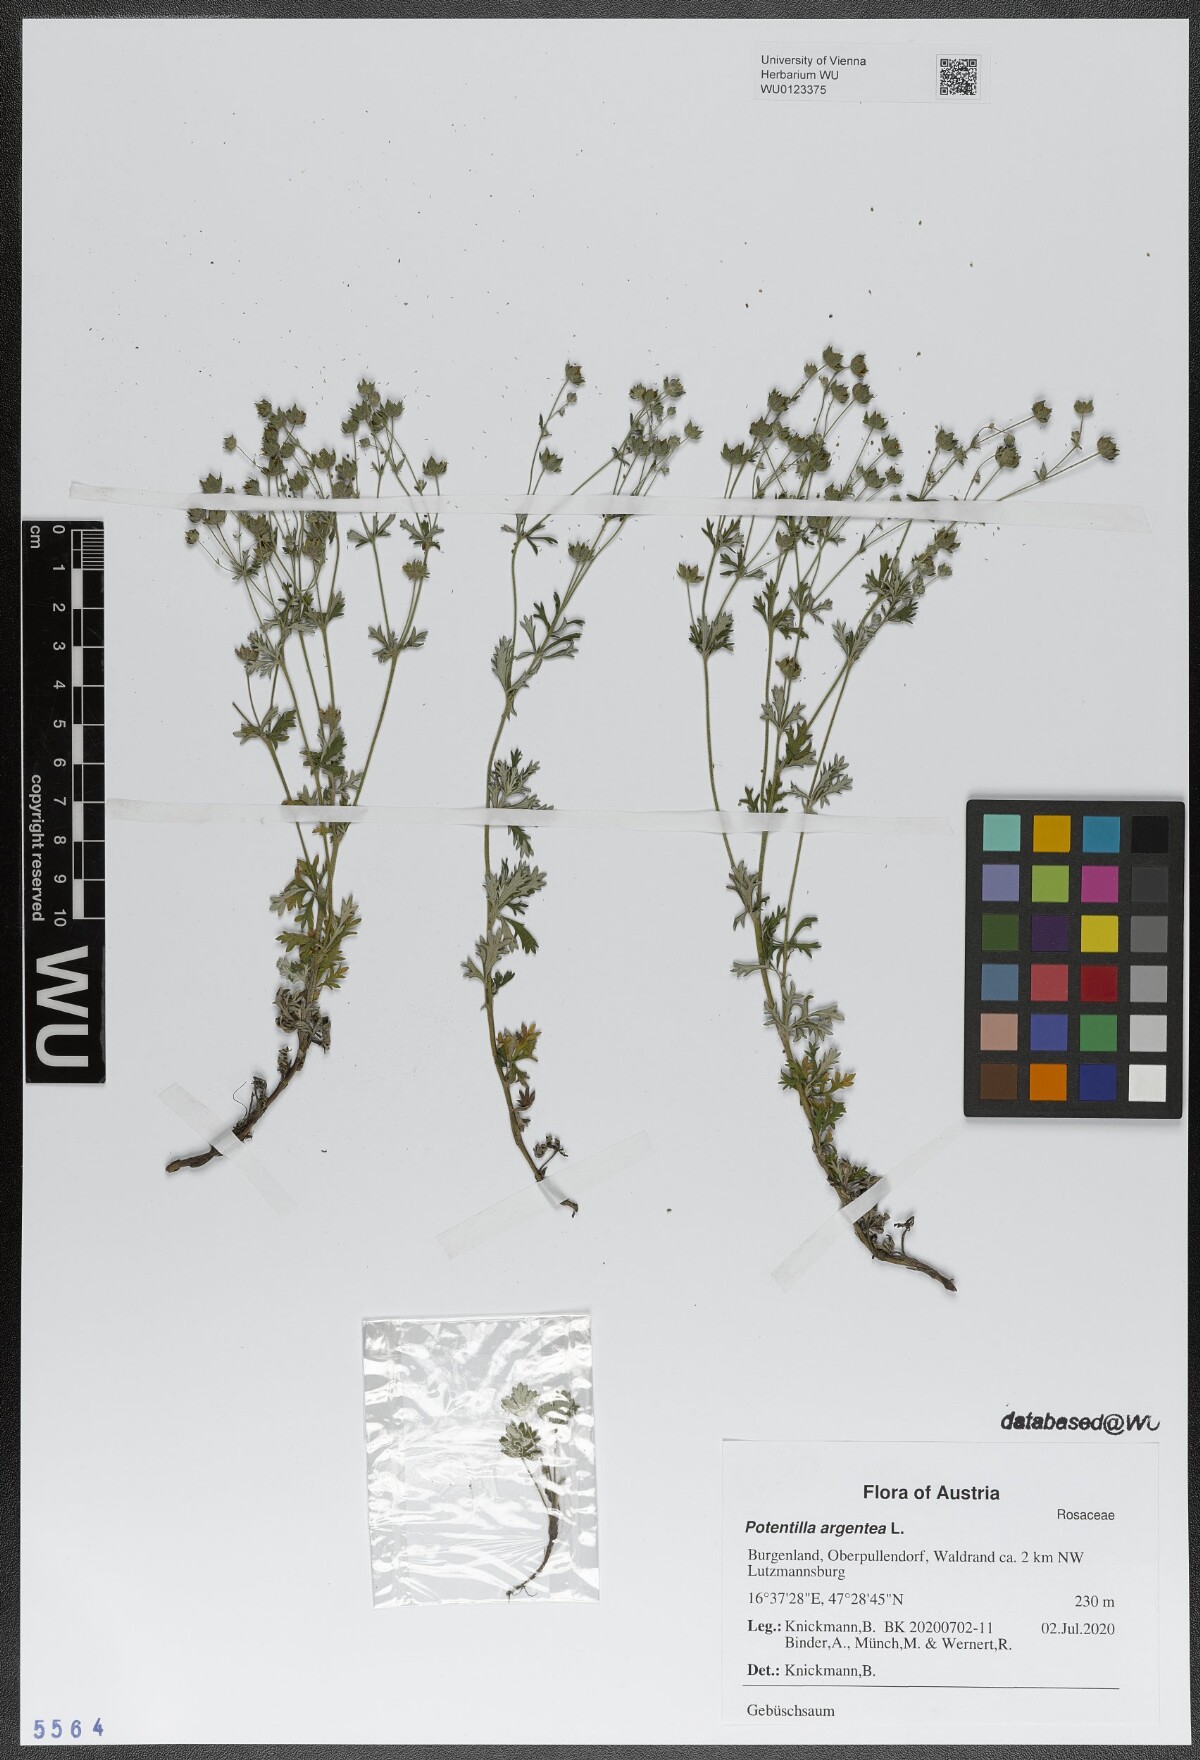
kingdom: Plantae
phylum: Tracheophyta
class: Magnoliopsida
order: Rosales
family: Rosaceae
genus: Potentilla
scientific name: Potentilla argentea
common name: Hoary cinquefoil
